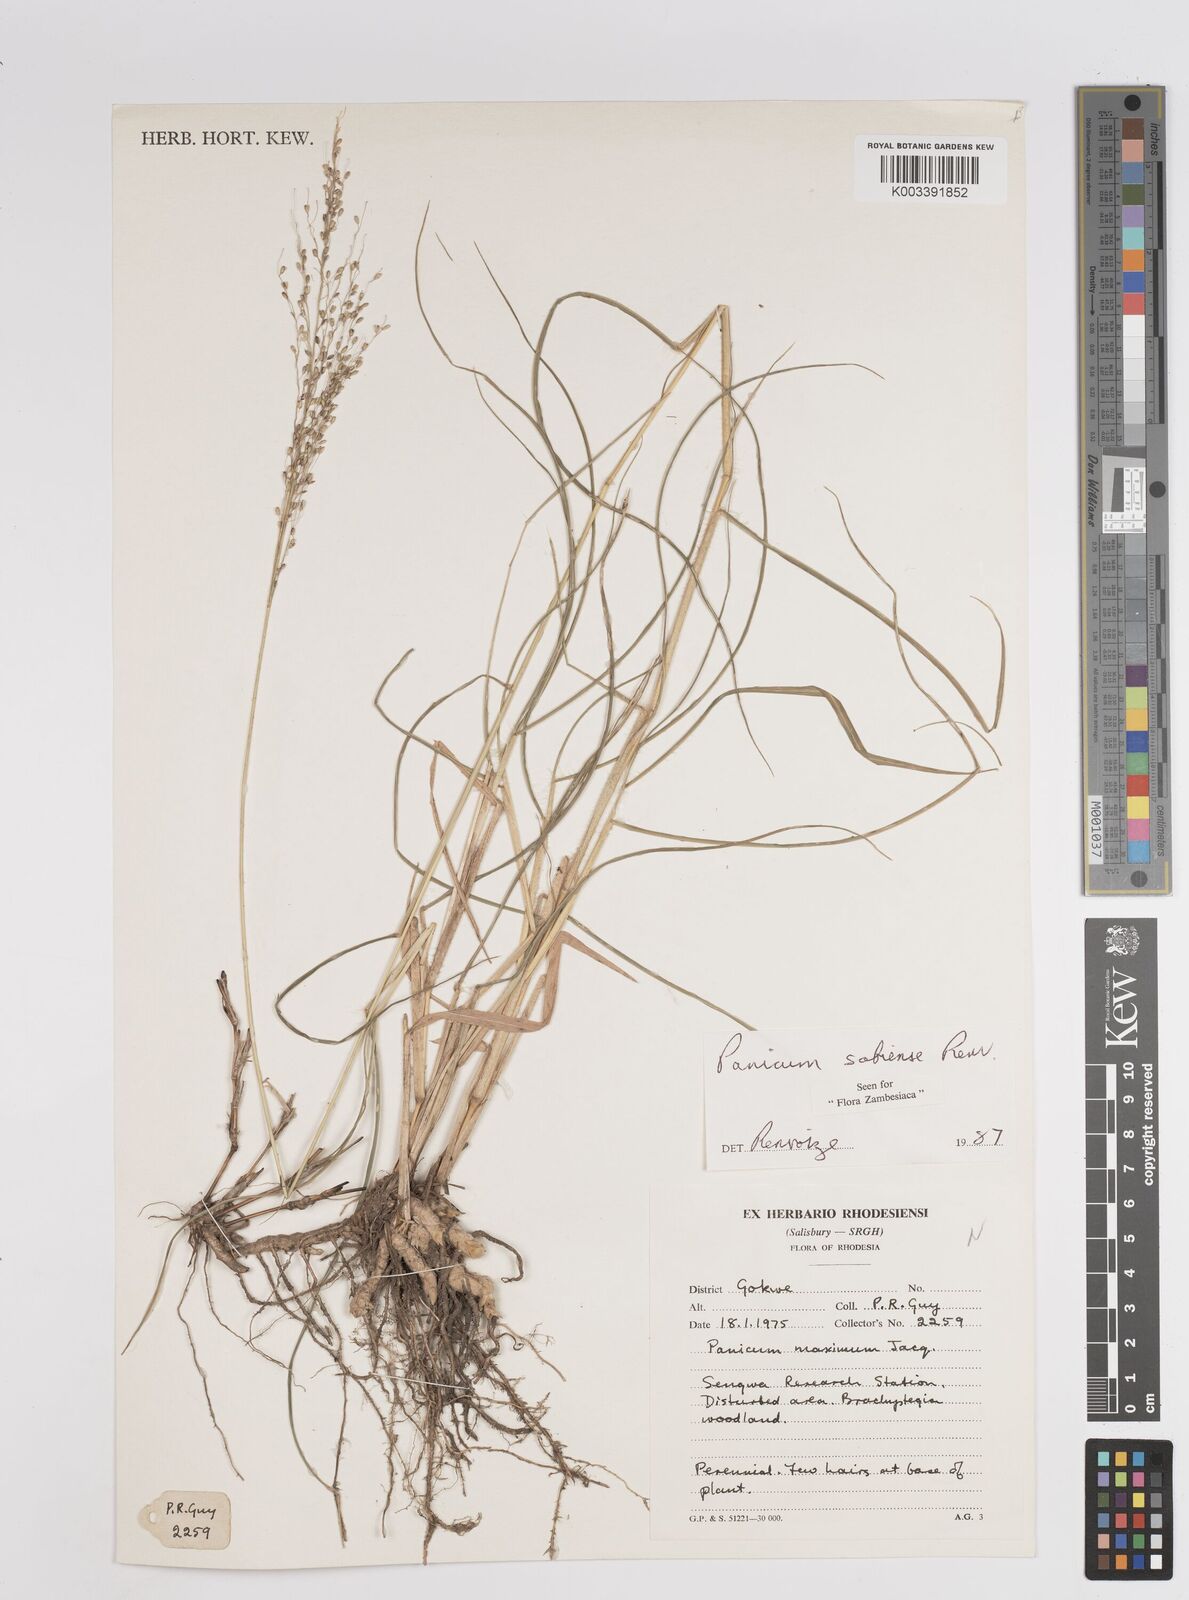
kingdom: Plantae
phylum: Tracheophyta
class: Liliopsida
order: Poales
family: Poaceae
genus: Panicum
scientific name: Panicum trichoides
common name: Tickle grass
